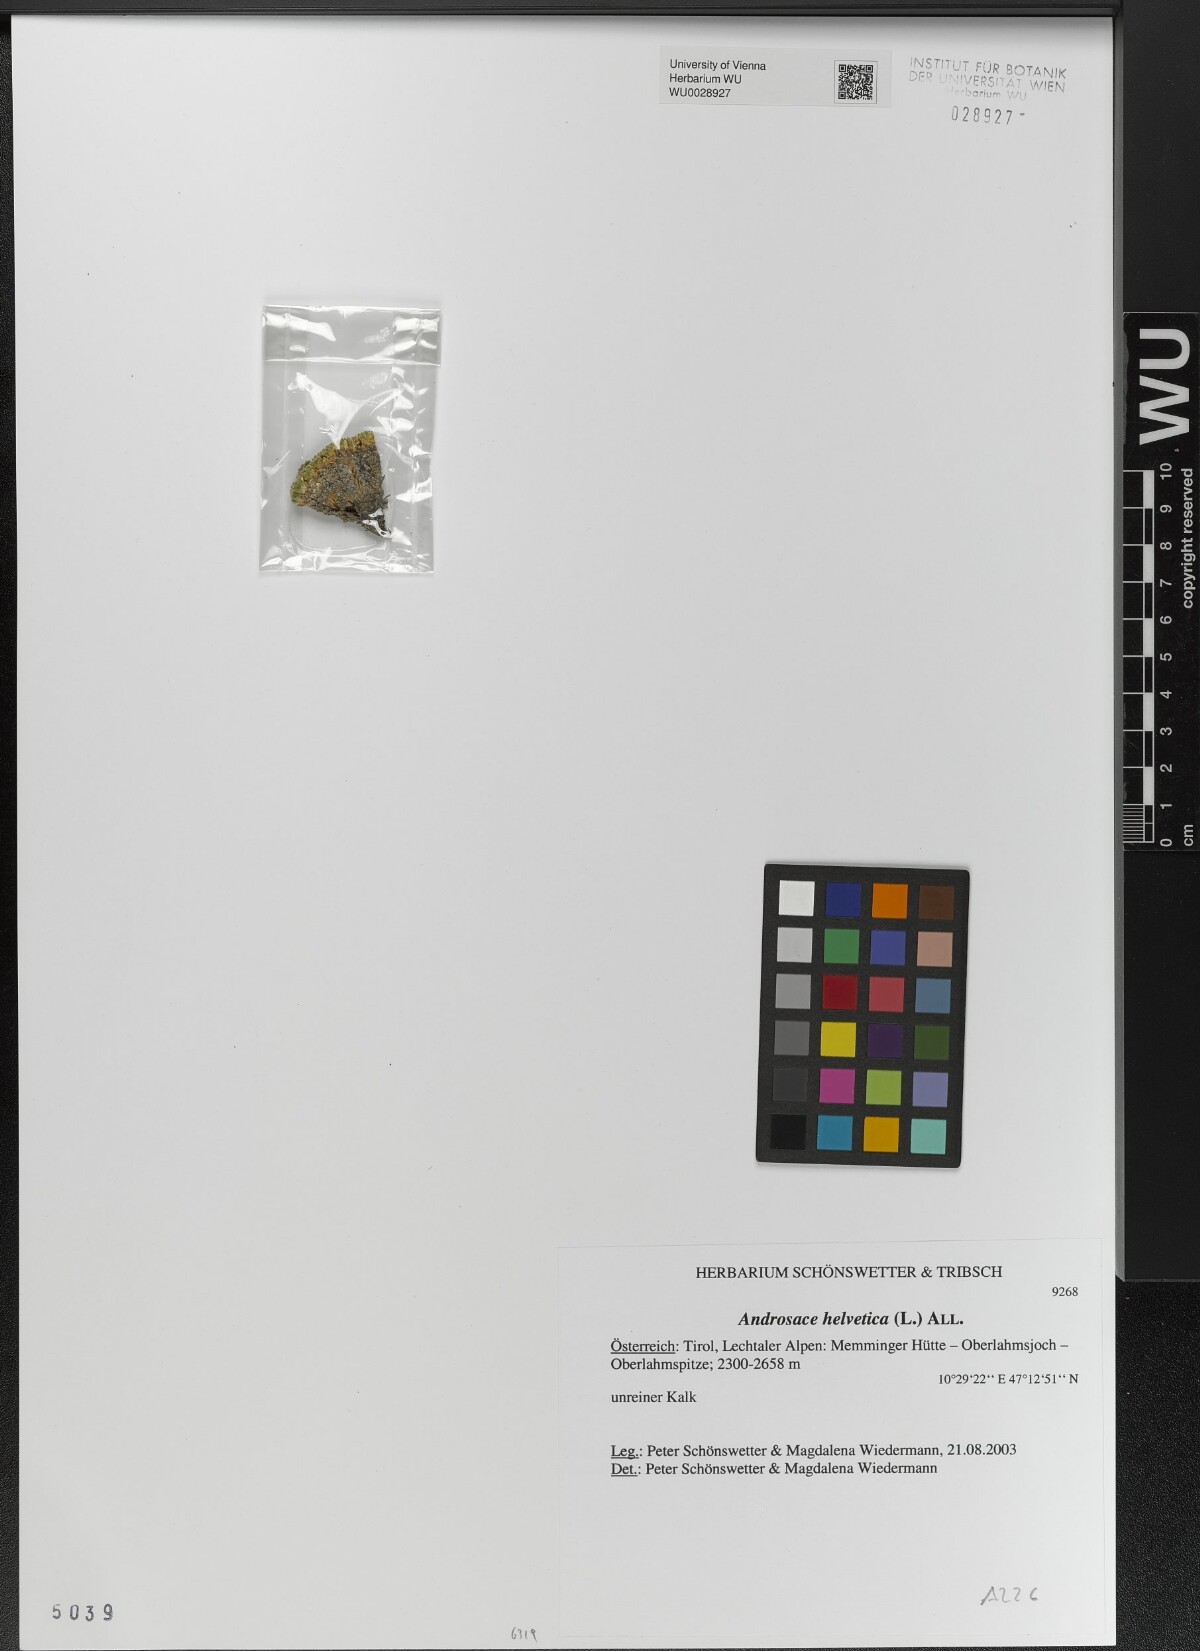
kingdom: Plantae
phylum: Tracheophyta
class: Magnoliopsida
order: Ericales
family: Primulaceae
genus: Androsace
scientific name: Androsace helvetica
